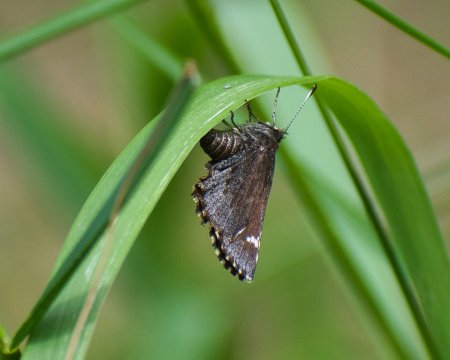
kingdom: Animalia
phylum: Arthropoda
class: Insecta
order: Lepidoptera
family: Hesperiidae
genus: Mastor
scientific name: Mastor vialis
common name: Common Roadside-Skipper
